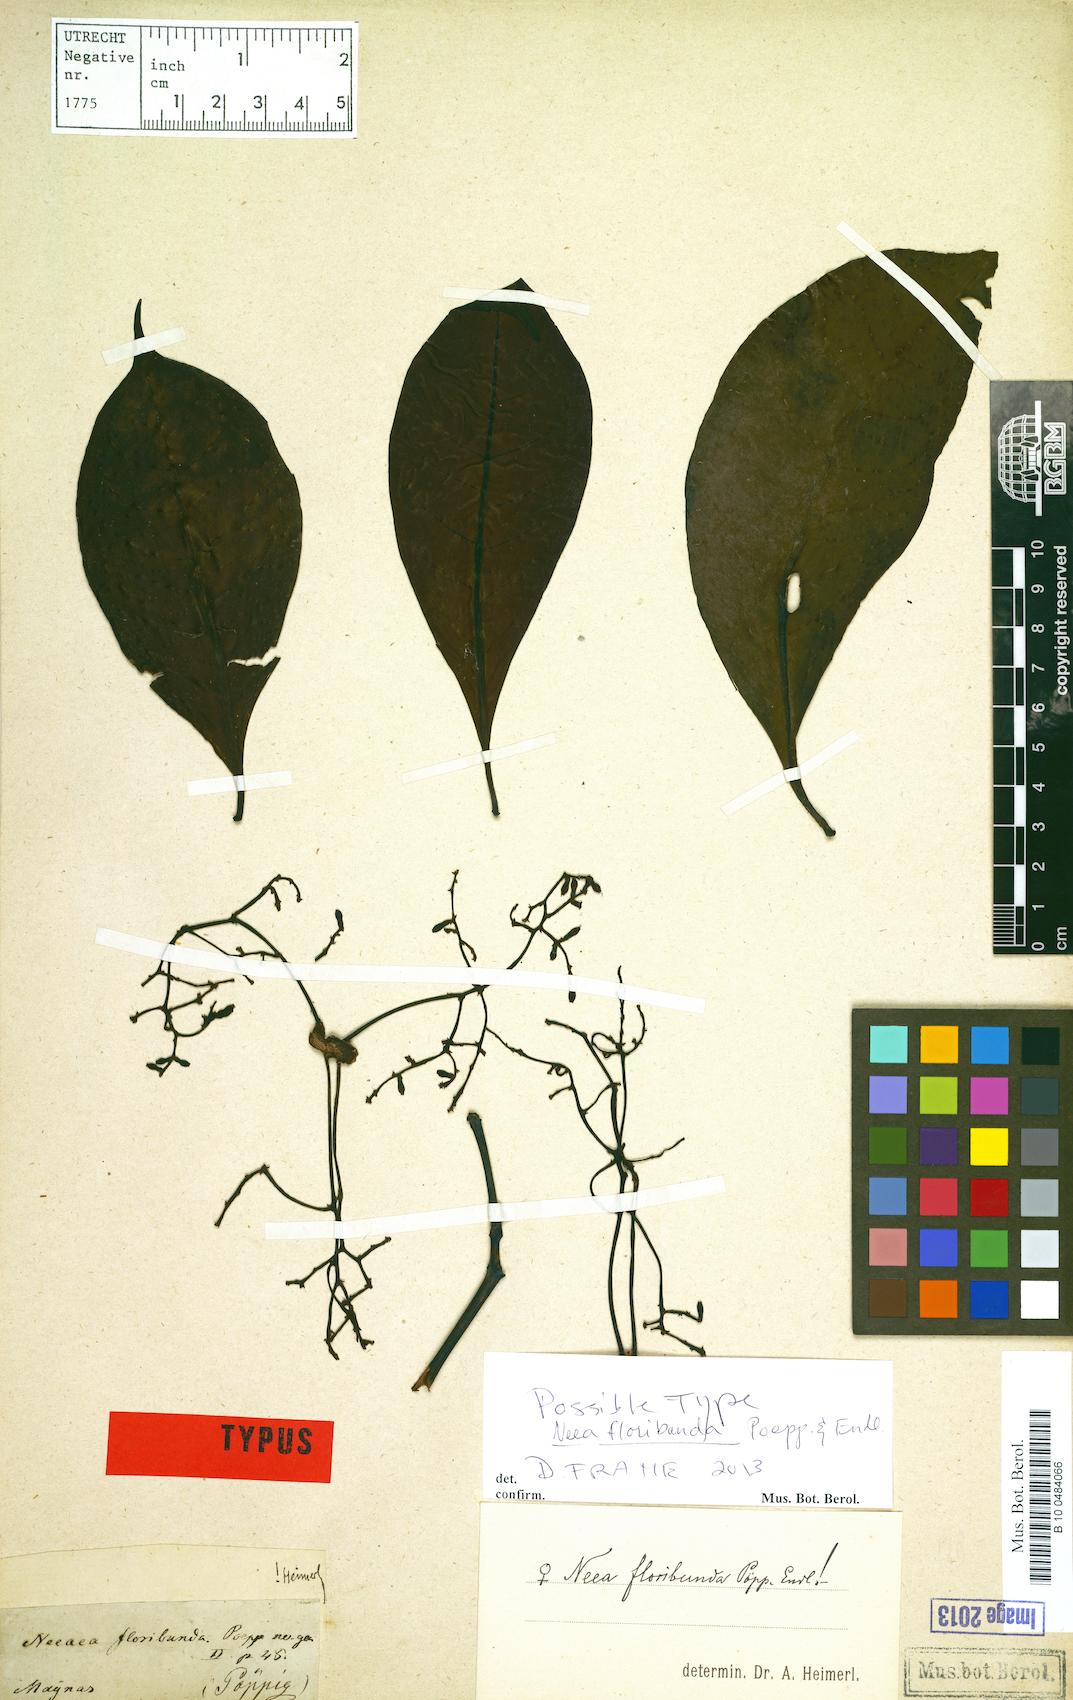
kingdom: Plantae
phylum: Tracheophyta
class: Magnoliopsida
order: Caryophyllales
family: Nyctaginaceae
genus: Neea
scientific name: Neea floribunda
